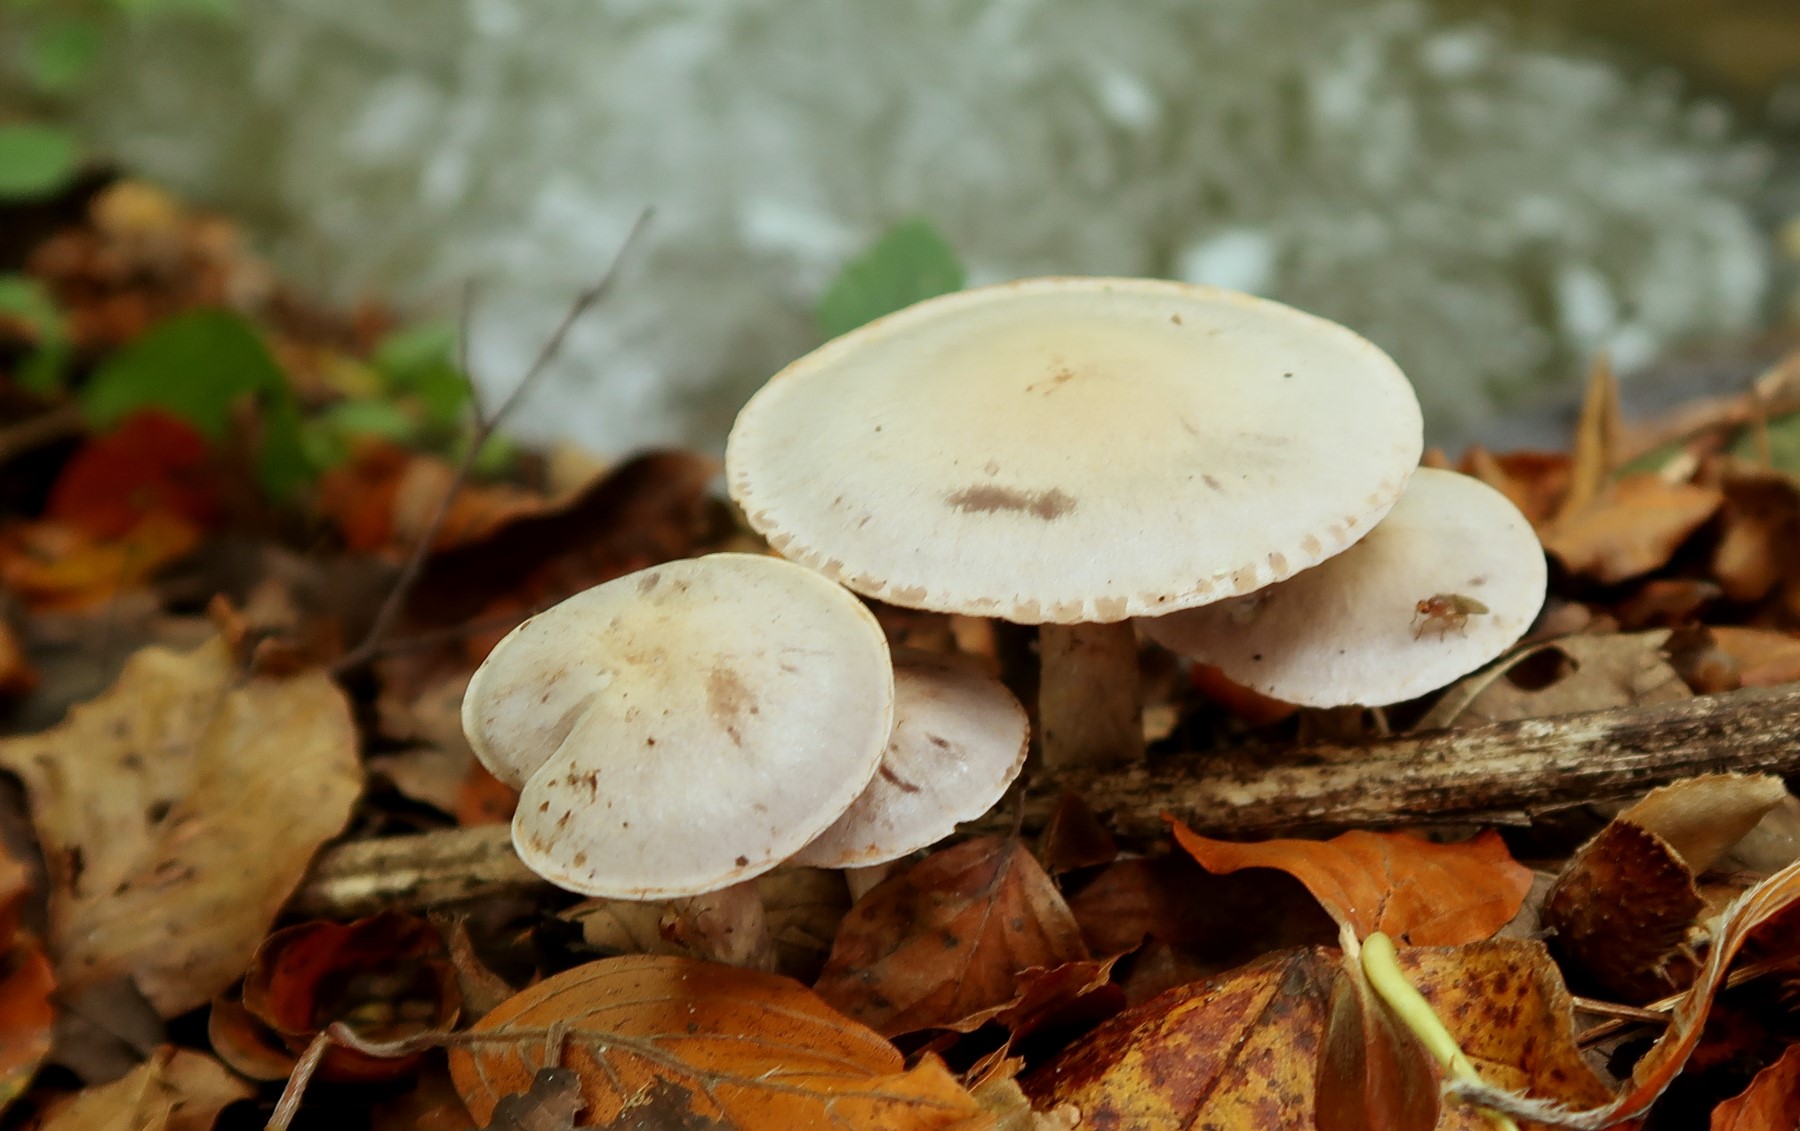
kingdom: Fungi
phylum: Basidiomycota
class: Agaricomycetes
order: Agaricales
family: Cortinariaceae
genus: Cortinarius
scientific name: Cortinarius
